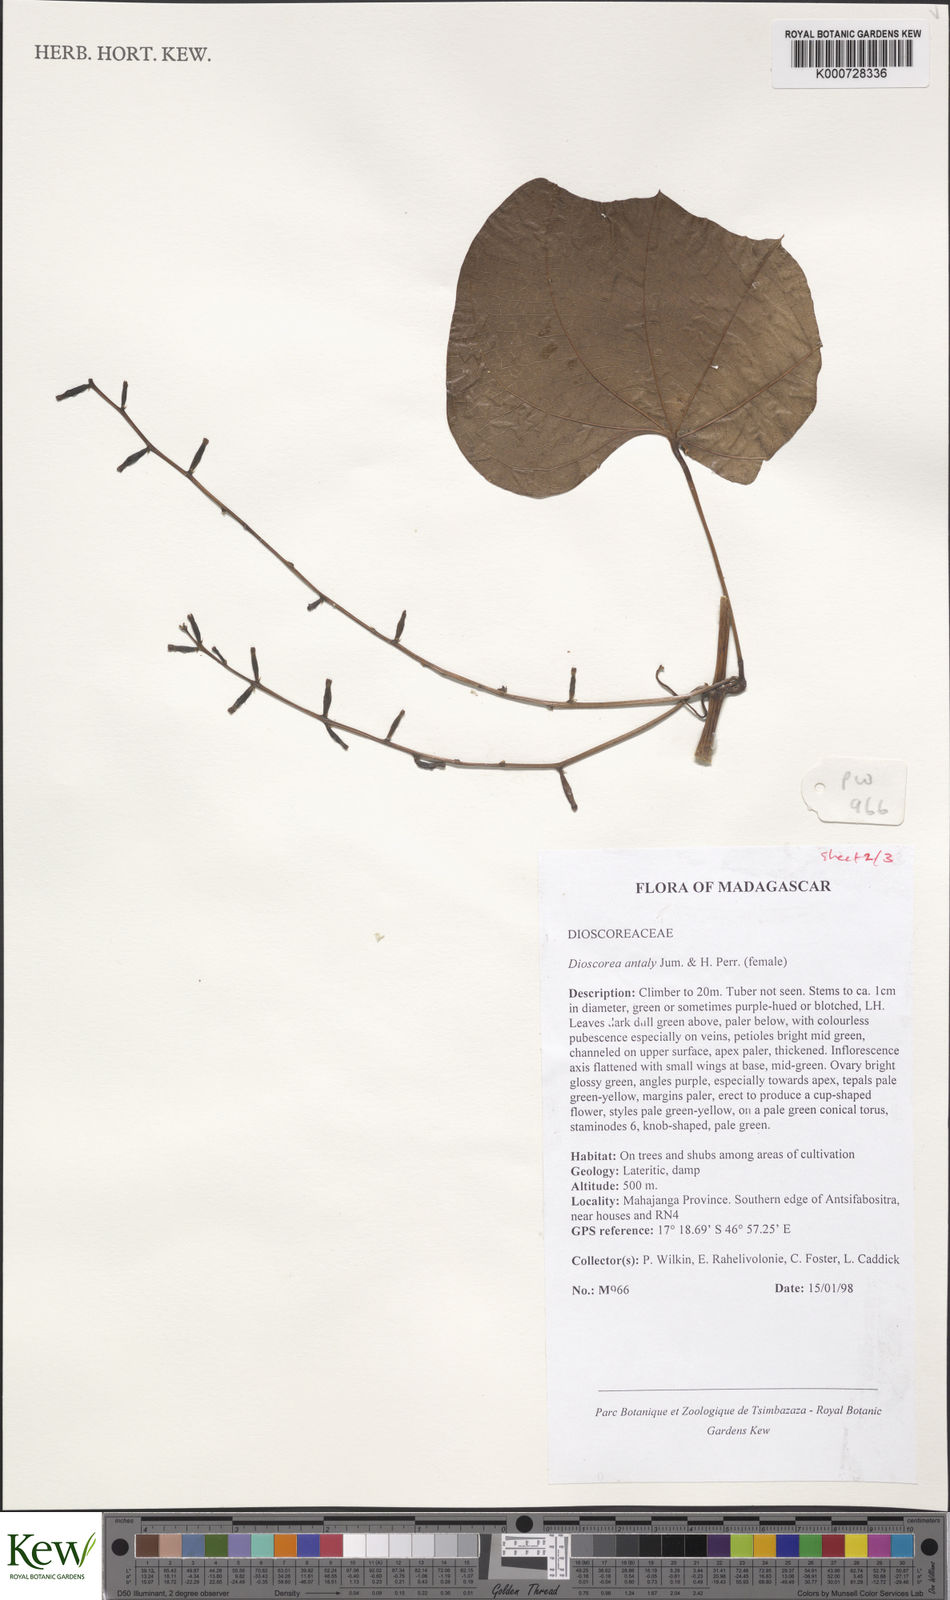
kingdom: Plantae
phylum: Tracheophyta
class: Liliopsida
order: Dioscoreales
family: Dioscoreaceae
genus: Dioscorea
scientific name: Dioscorea antaly
